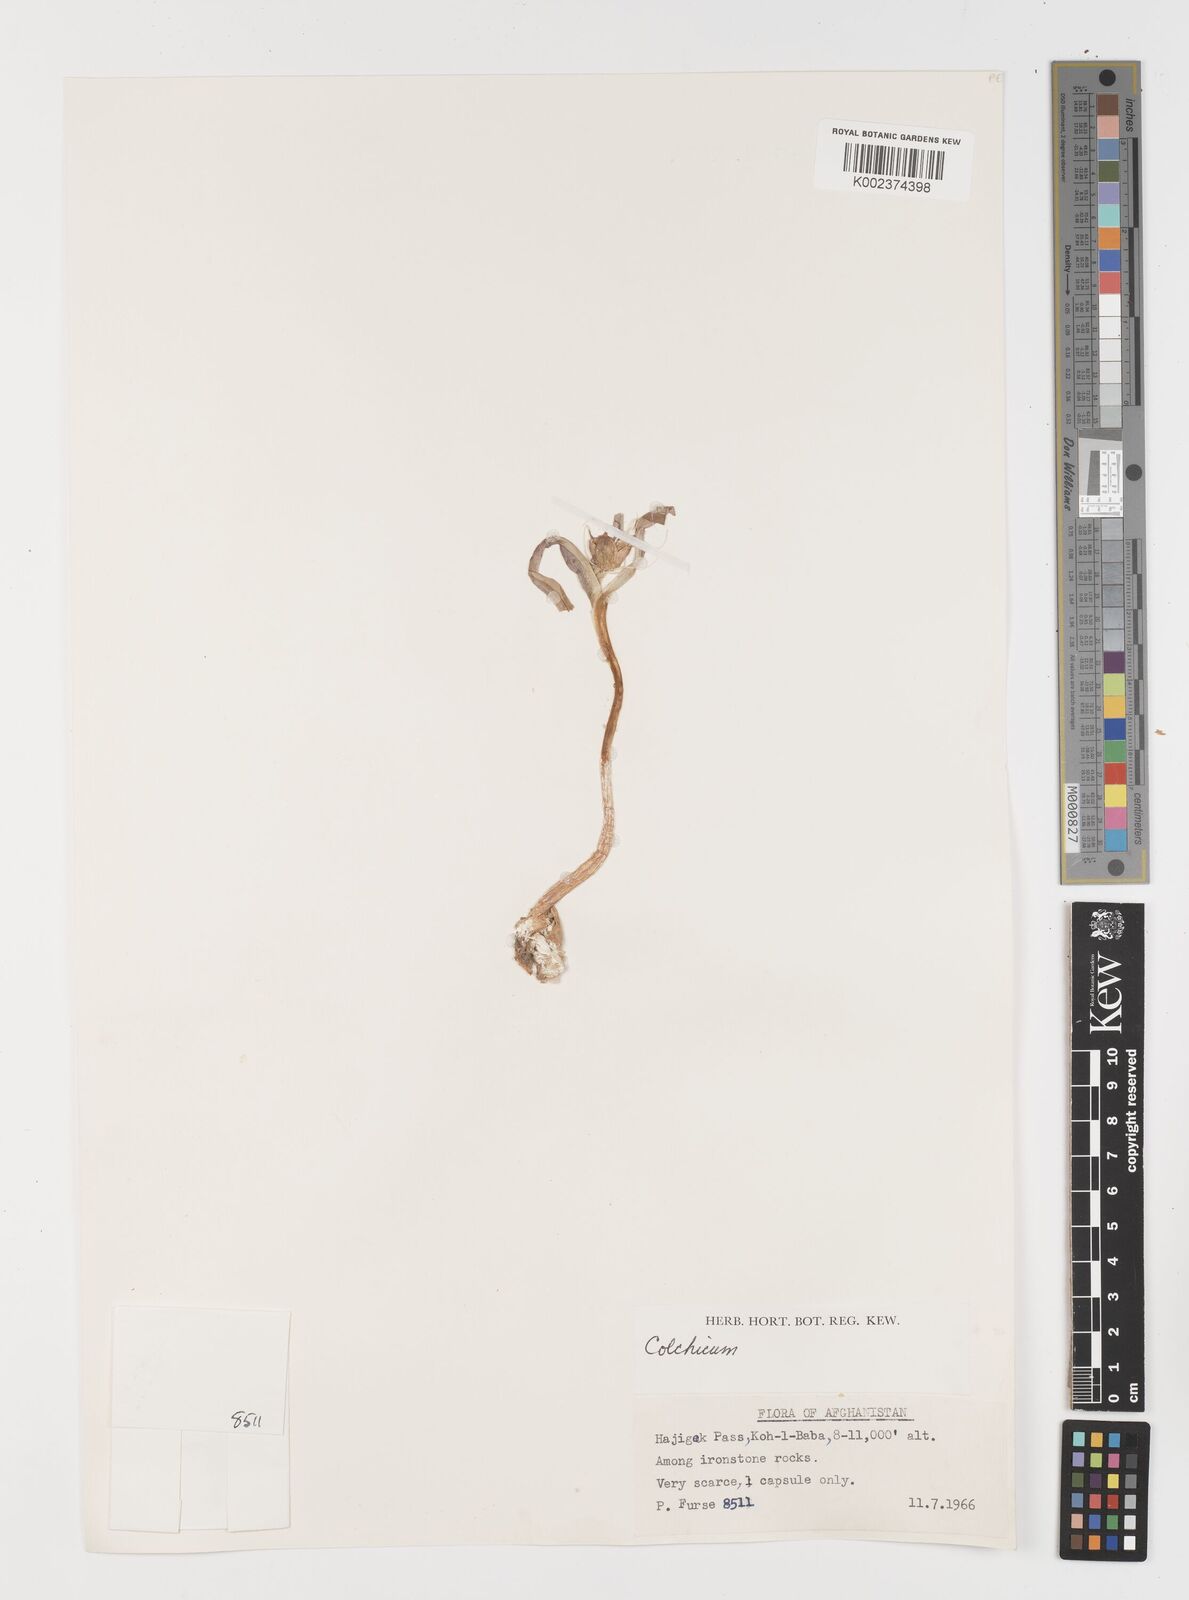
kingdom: Plantae
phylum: Tracheophyta
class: Liliopsida
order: Liliales
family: Colchicaceae
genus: Colchicum
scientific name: Colchicum
